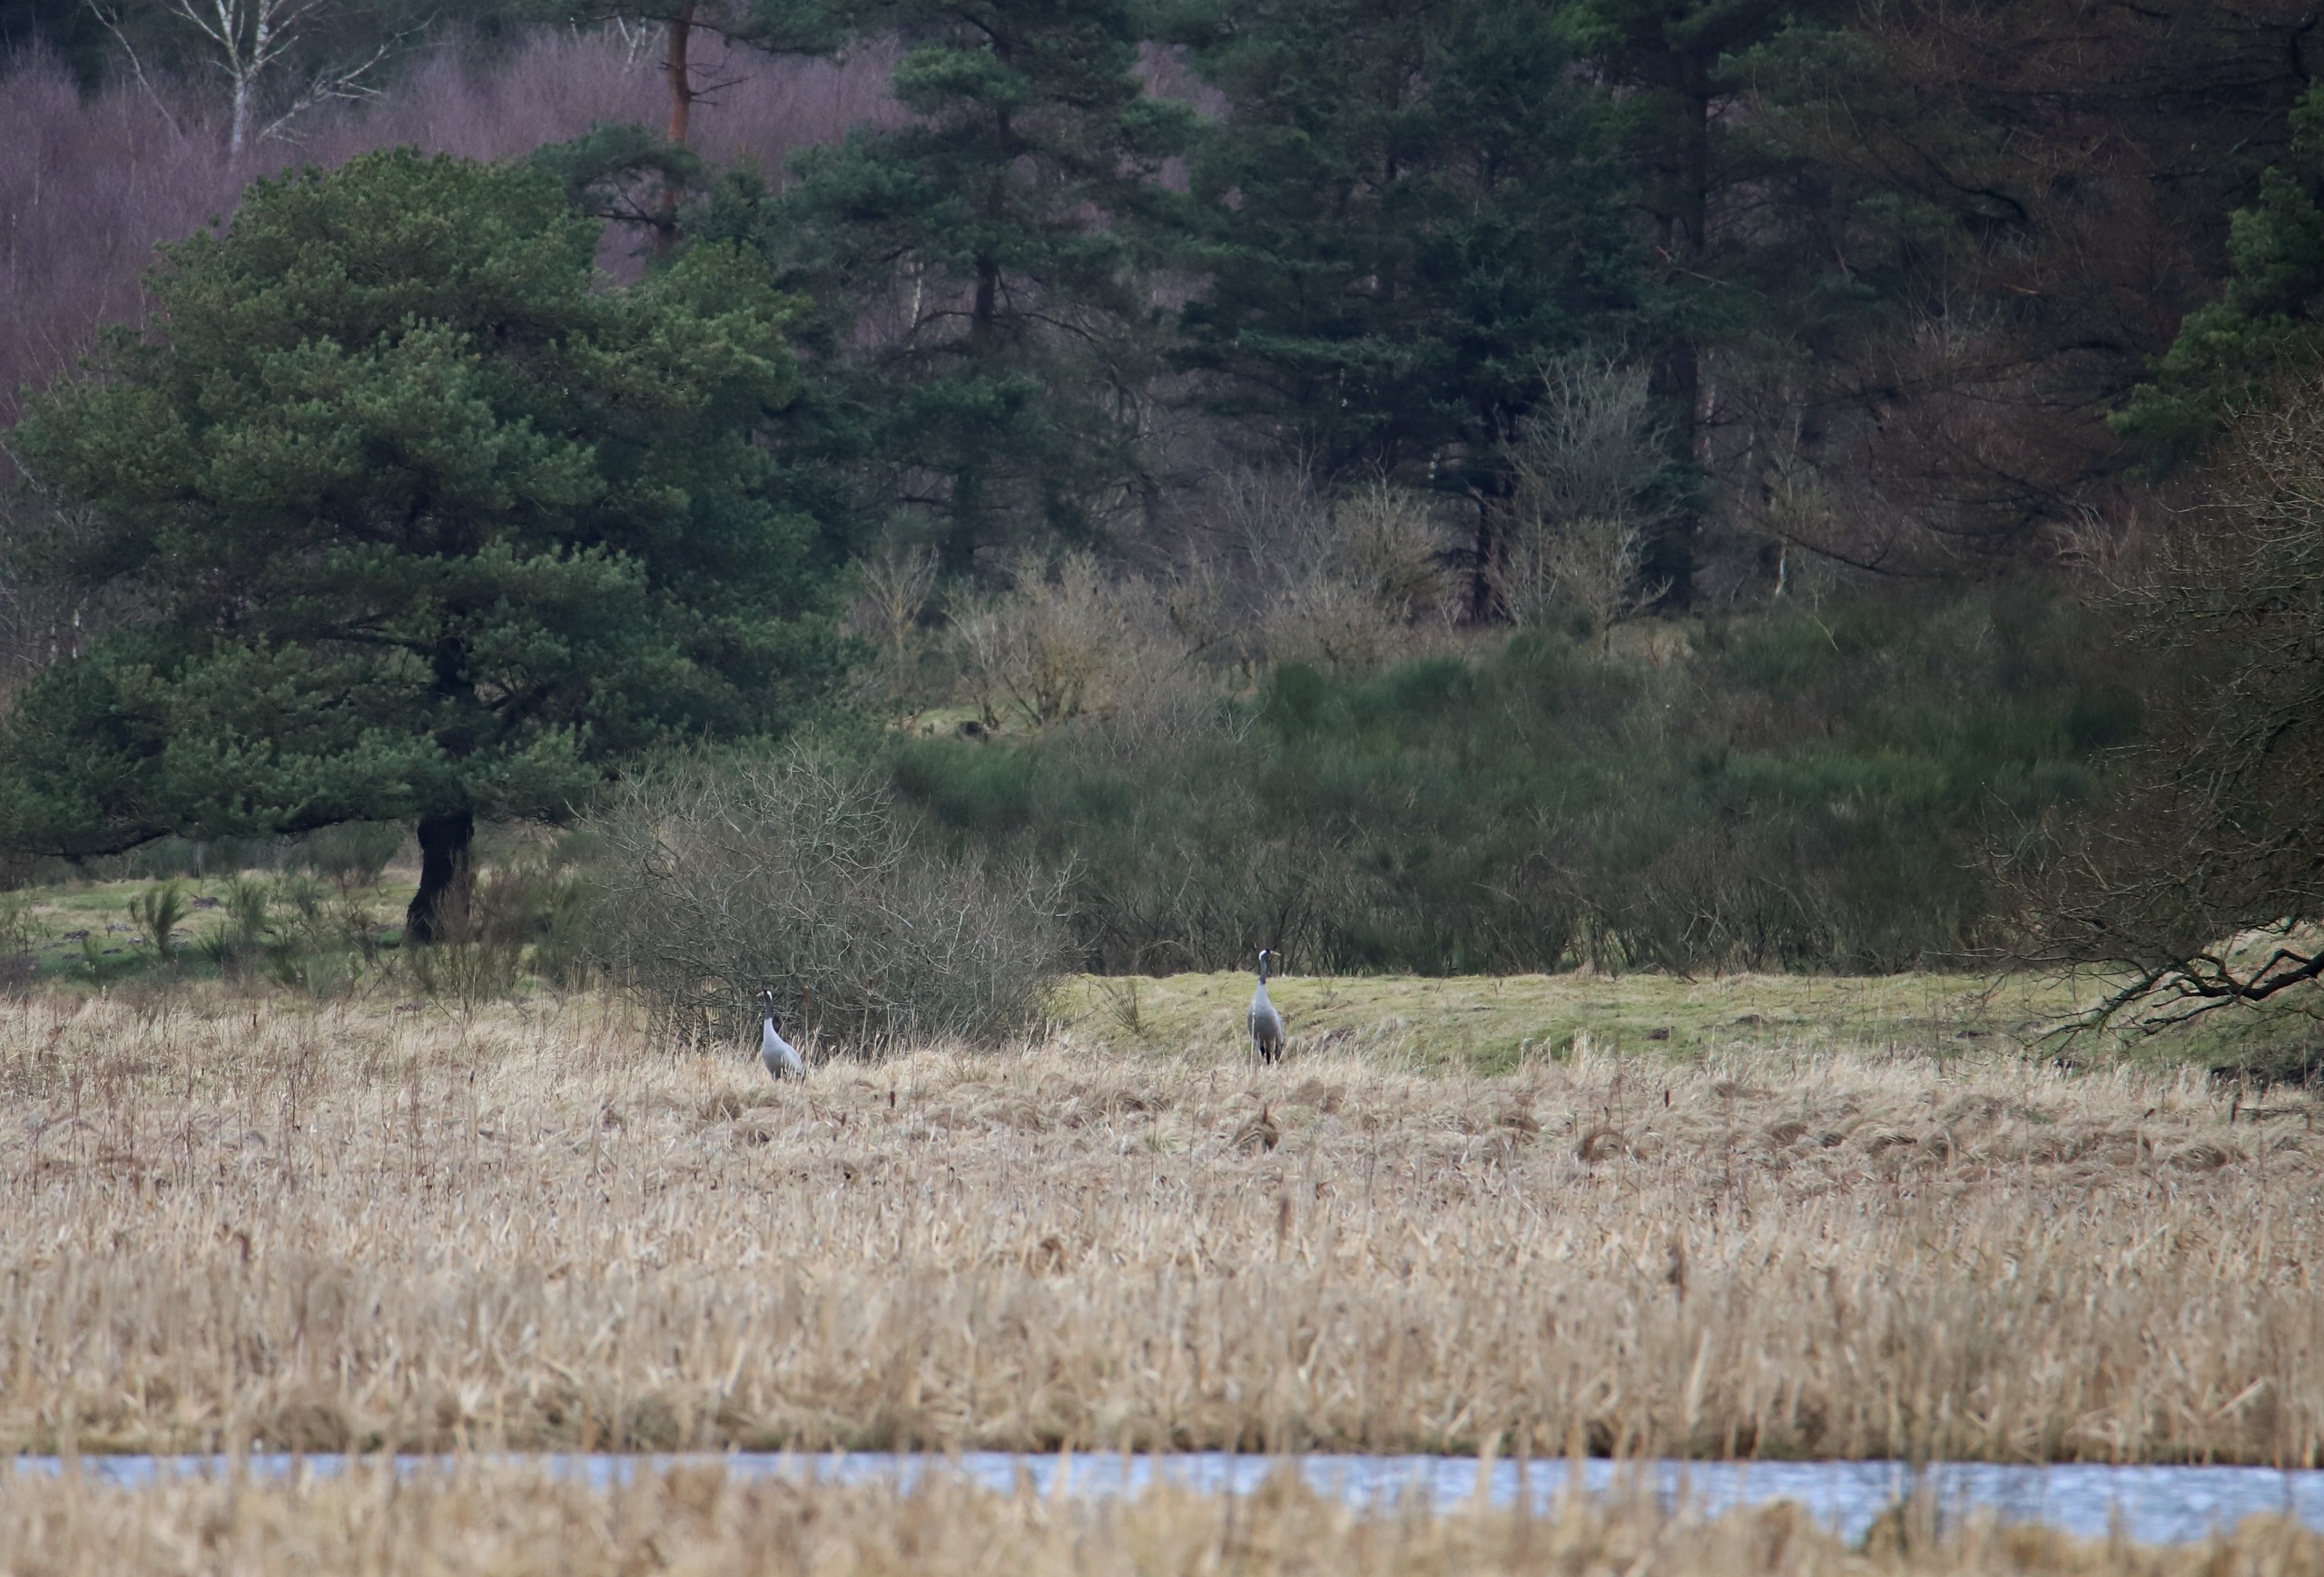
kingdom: Animalia
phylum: Chordata
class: Aves
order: Gruiformes
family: Gruidae
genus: Grus
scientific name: Grus grus
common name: Trane
